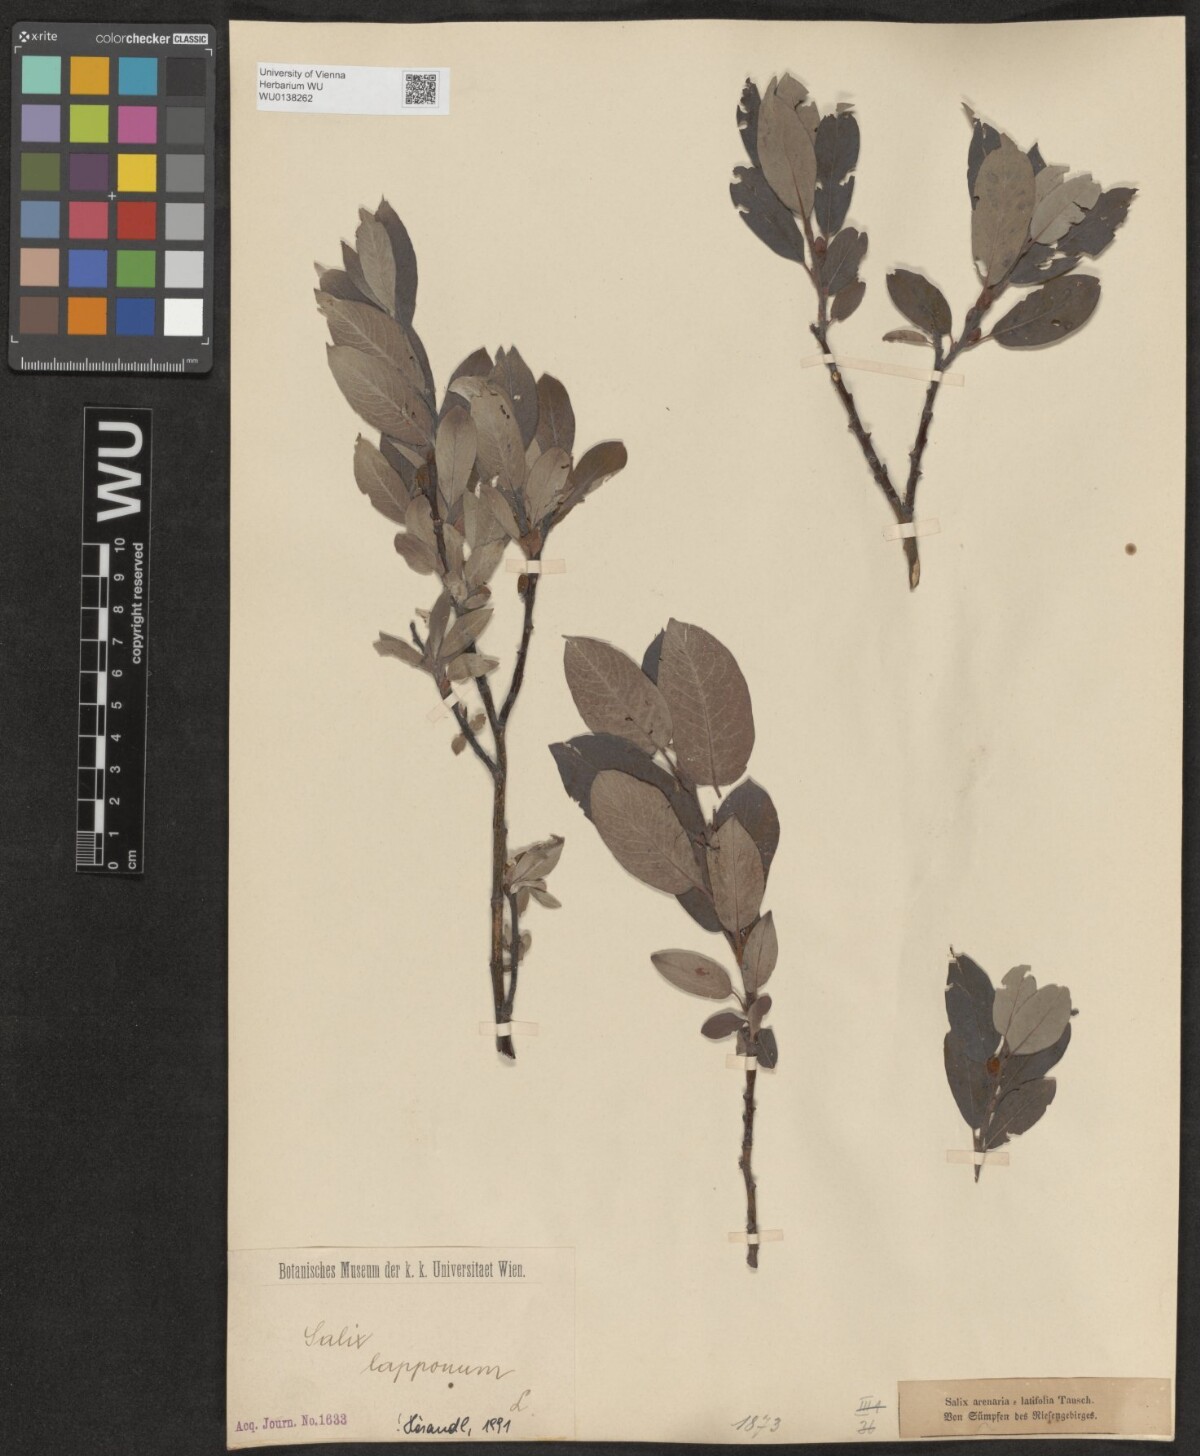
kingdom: Plantae
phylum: Tracheophyta
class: Magnoliopsida
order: Malpighiales
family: Salicaceae
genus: Salix
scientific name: Salix lapponum
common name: Downy willow
